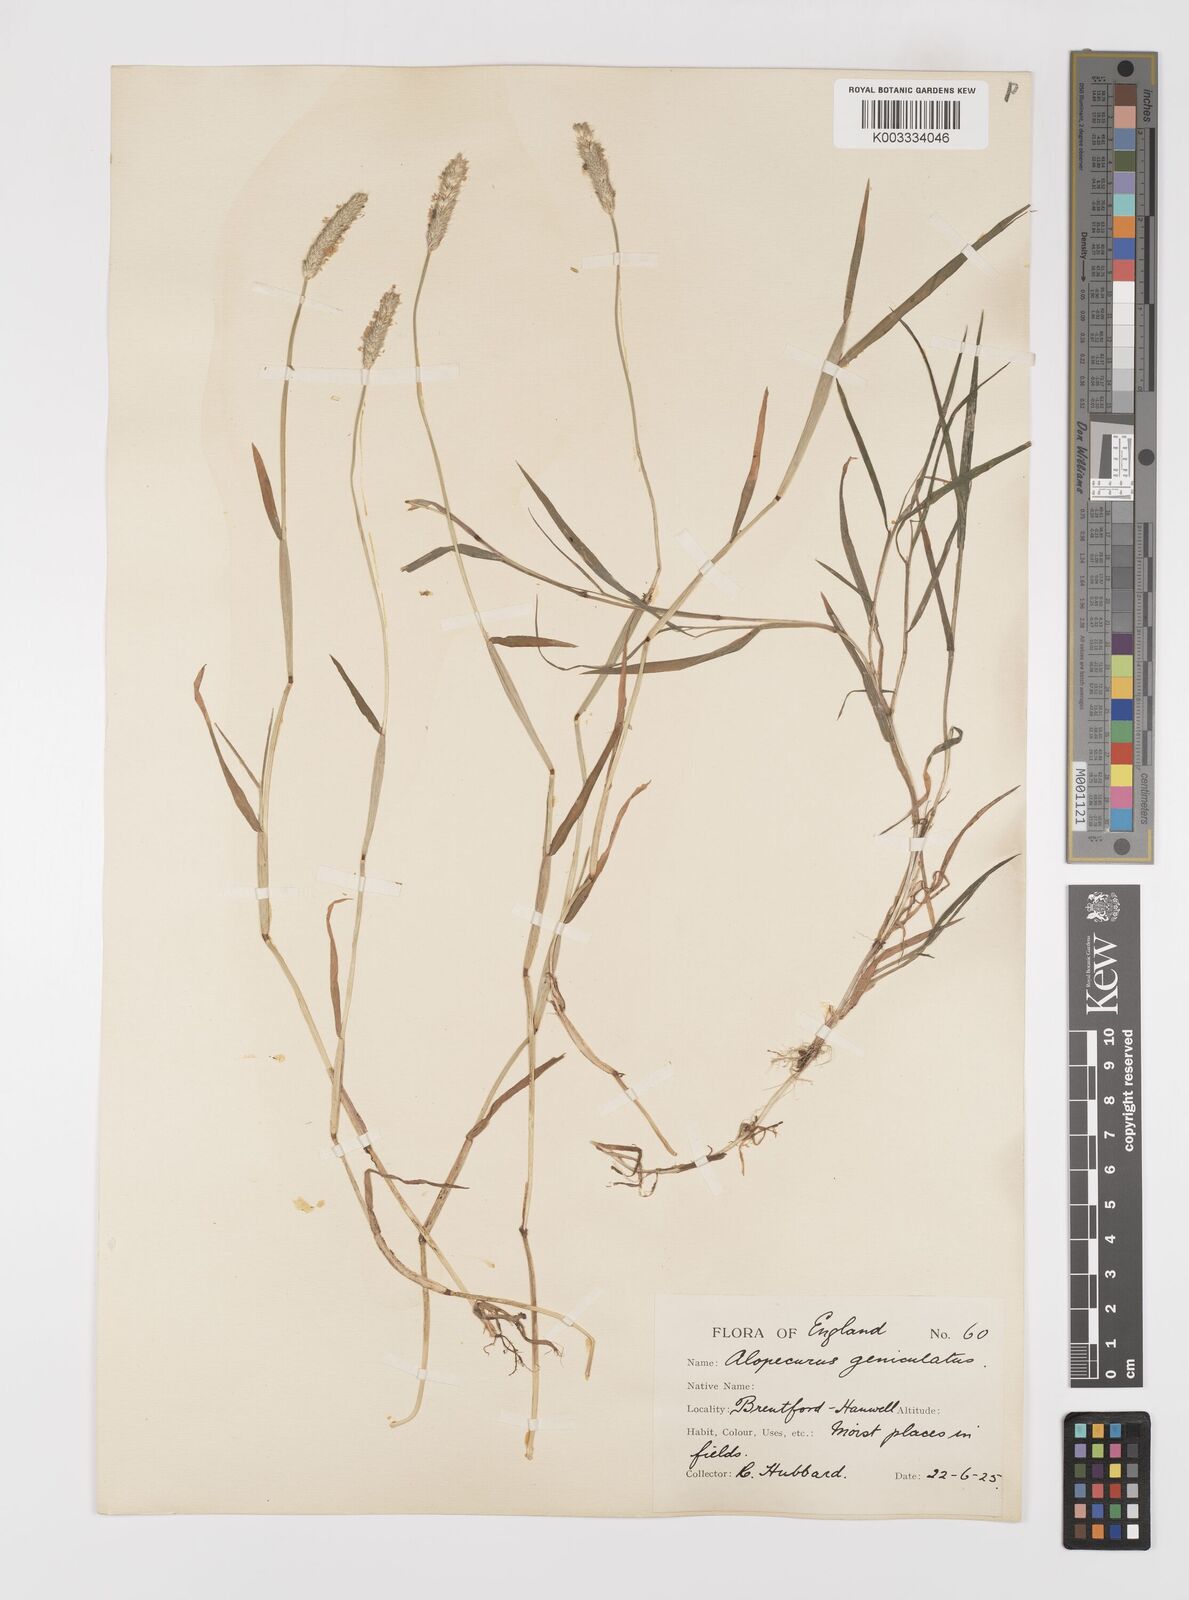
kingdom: Plantae
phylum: Tracheophyta
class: Liliopsida
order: Poales
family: Poaceae
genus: Alopecurus
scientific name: Alopecurus geniculatus
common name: Water foxtail
